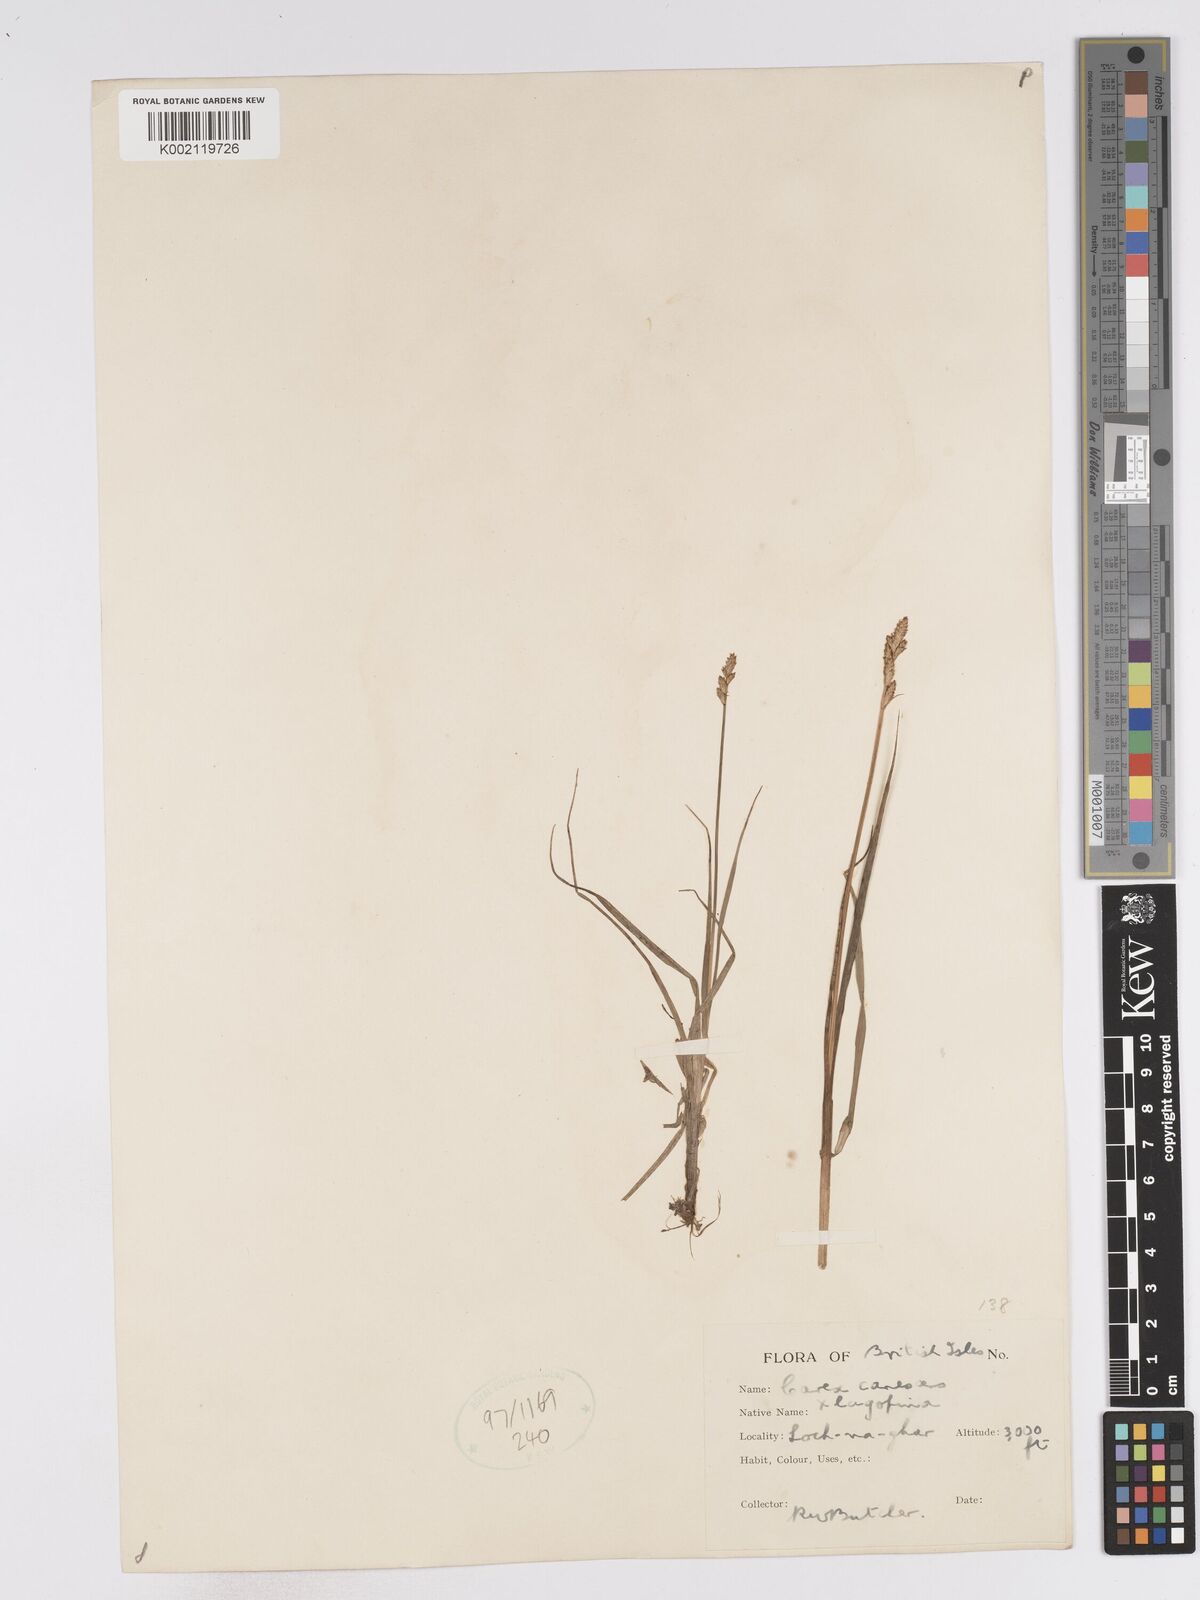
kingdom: Plantae
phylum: Tracheophyta
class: Liliopsida
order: Poales
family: Cyperaceae
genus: Carex
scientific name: Carex helvola
